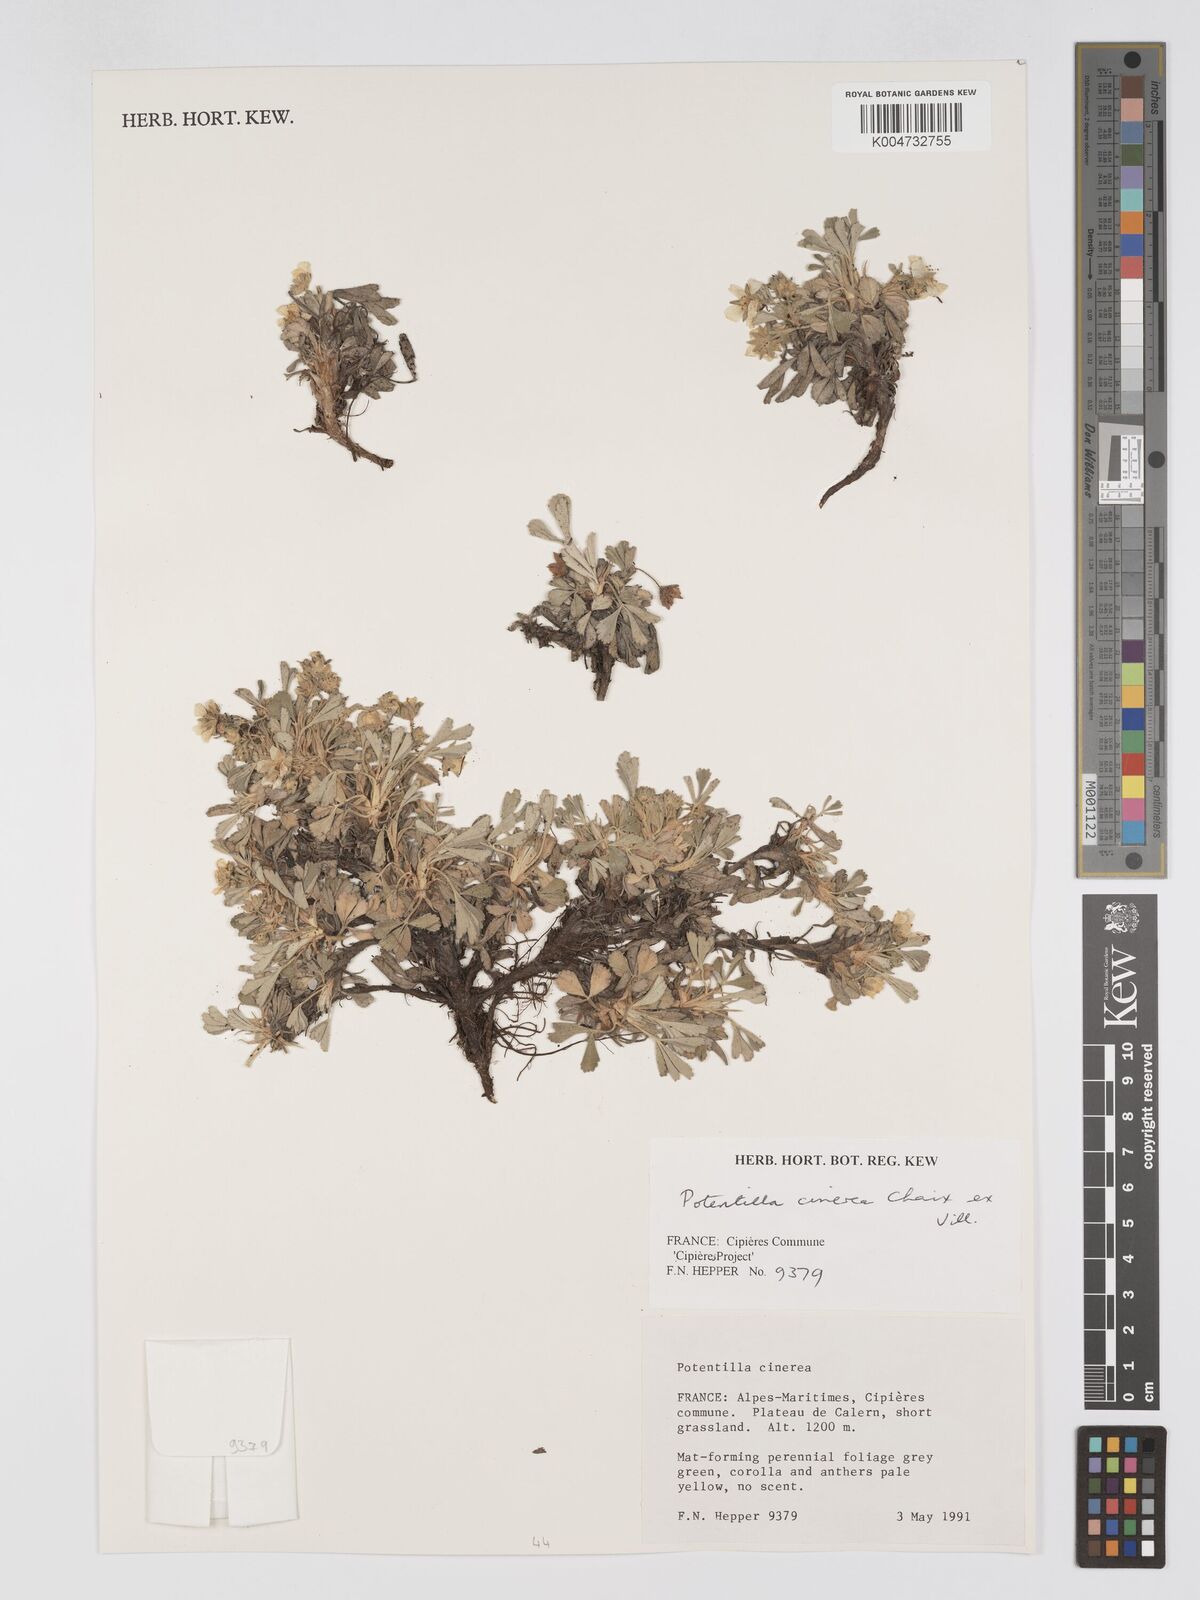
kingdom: Plantae
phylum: Tracheophyta
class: Magnoliopsida
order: Rosales
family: Rosaceae
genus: Potentilla
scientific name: Potentilla
